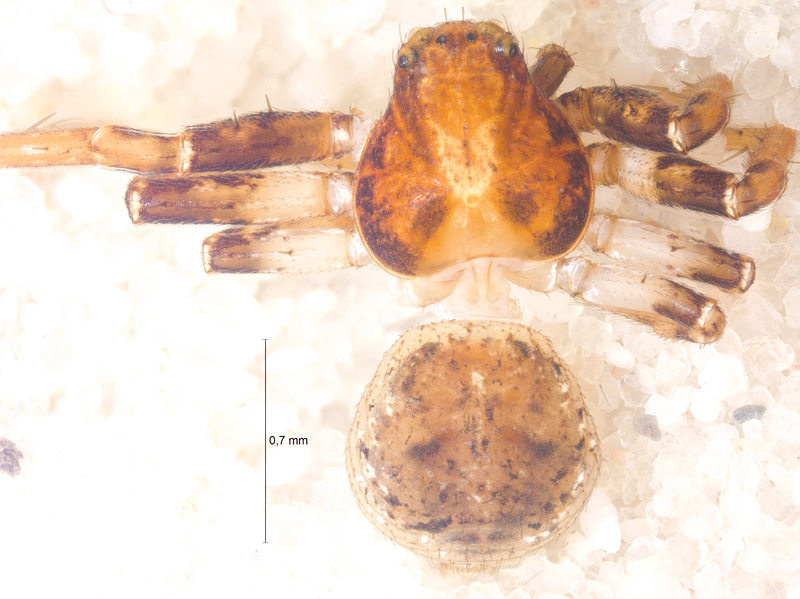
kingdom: Animalia
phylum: Arthropoda
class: Arachnida
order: Araneae
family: Thomisidae
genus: Ozyptila
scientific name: Ozyptila praticola
